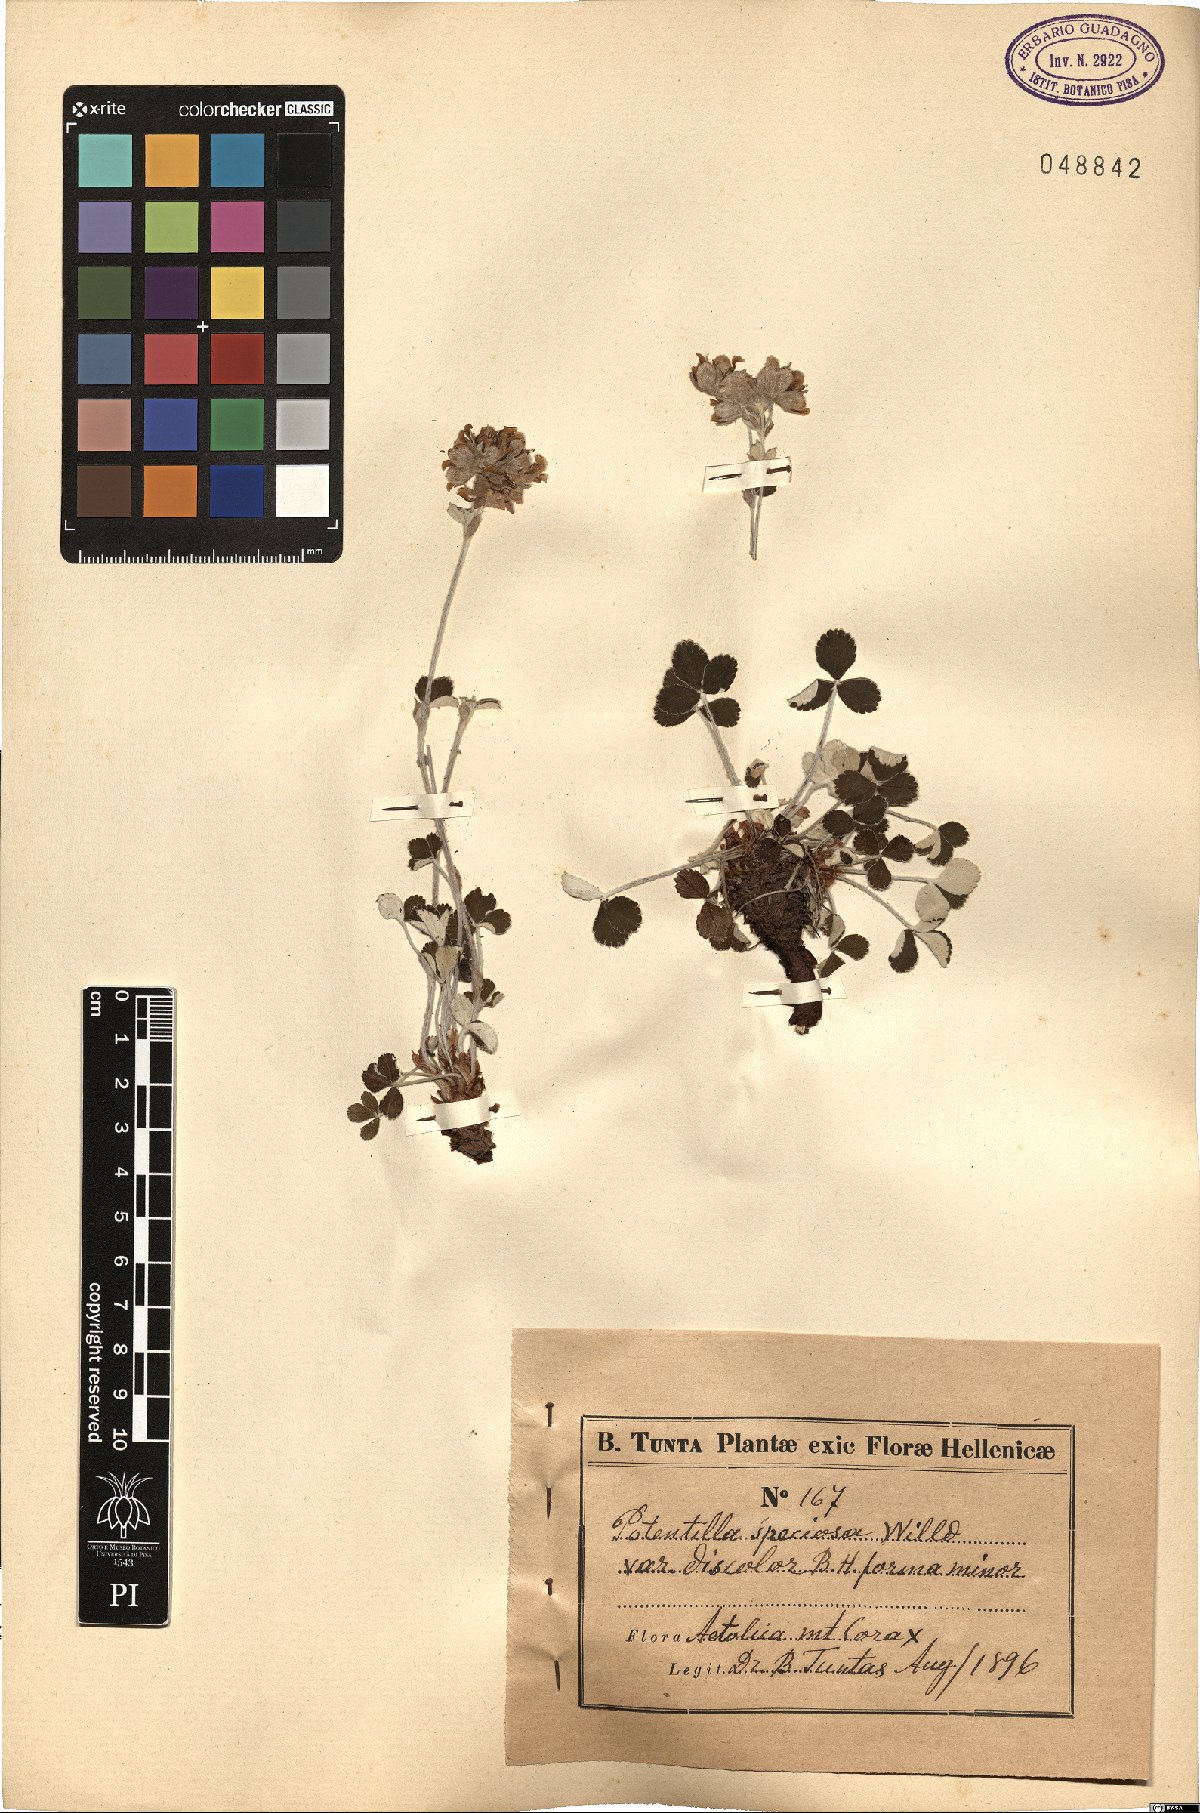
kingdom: Plantae
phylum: Tracheophyta
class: Magnoliopsida
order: Rosales
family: Rosaceae
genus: Potentilla
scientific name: Potentilla speciosa
